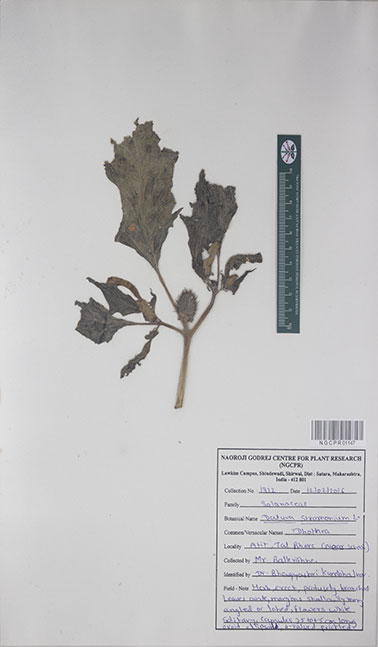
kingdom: Plantae
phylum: Tracheophyta
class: Magnoliopsida
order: Solanales
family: Solanaceae
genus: Datura
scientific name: Datura stramonium
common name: Thorn-apple
